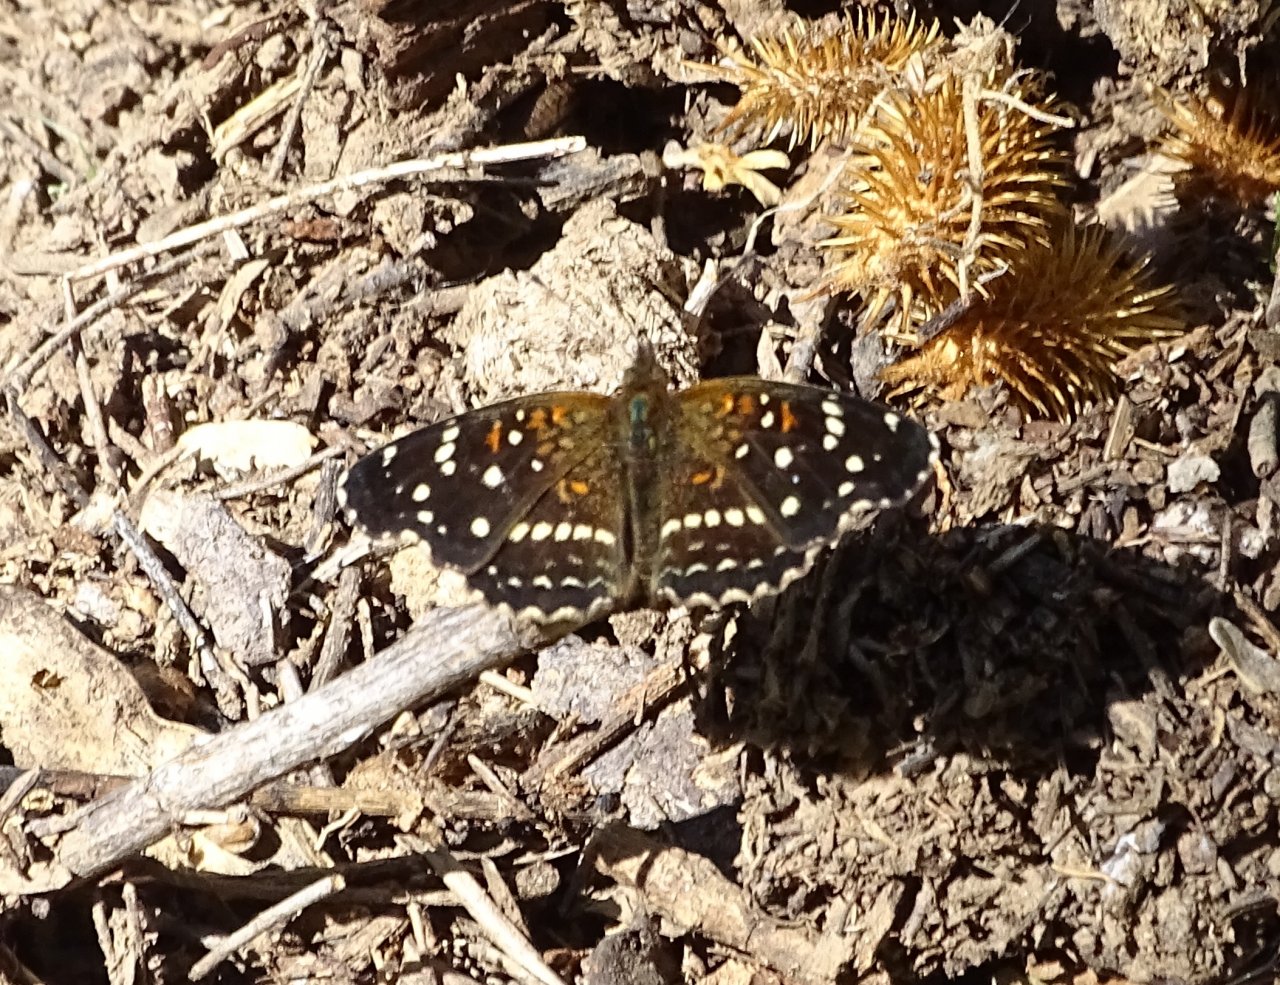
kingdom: Animalia
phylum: Arthropoda
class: Insecta
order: Lepidoptera
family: Nymphalidae
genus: Anthanassa
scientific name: Anthanassa texana
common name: Texan Crescent
